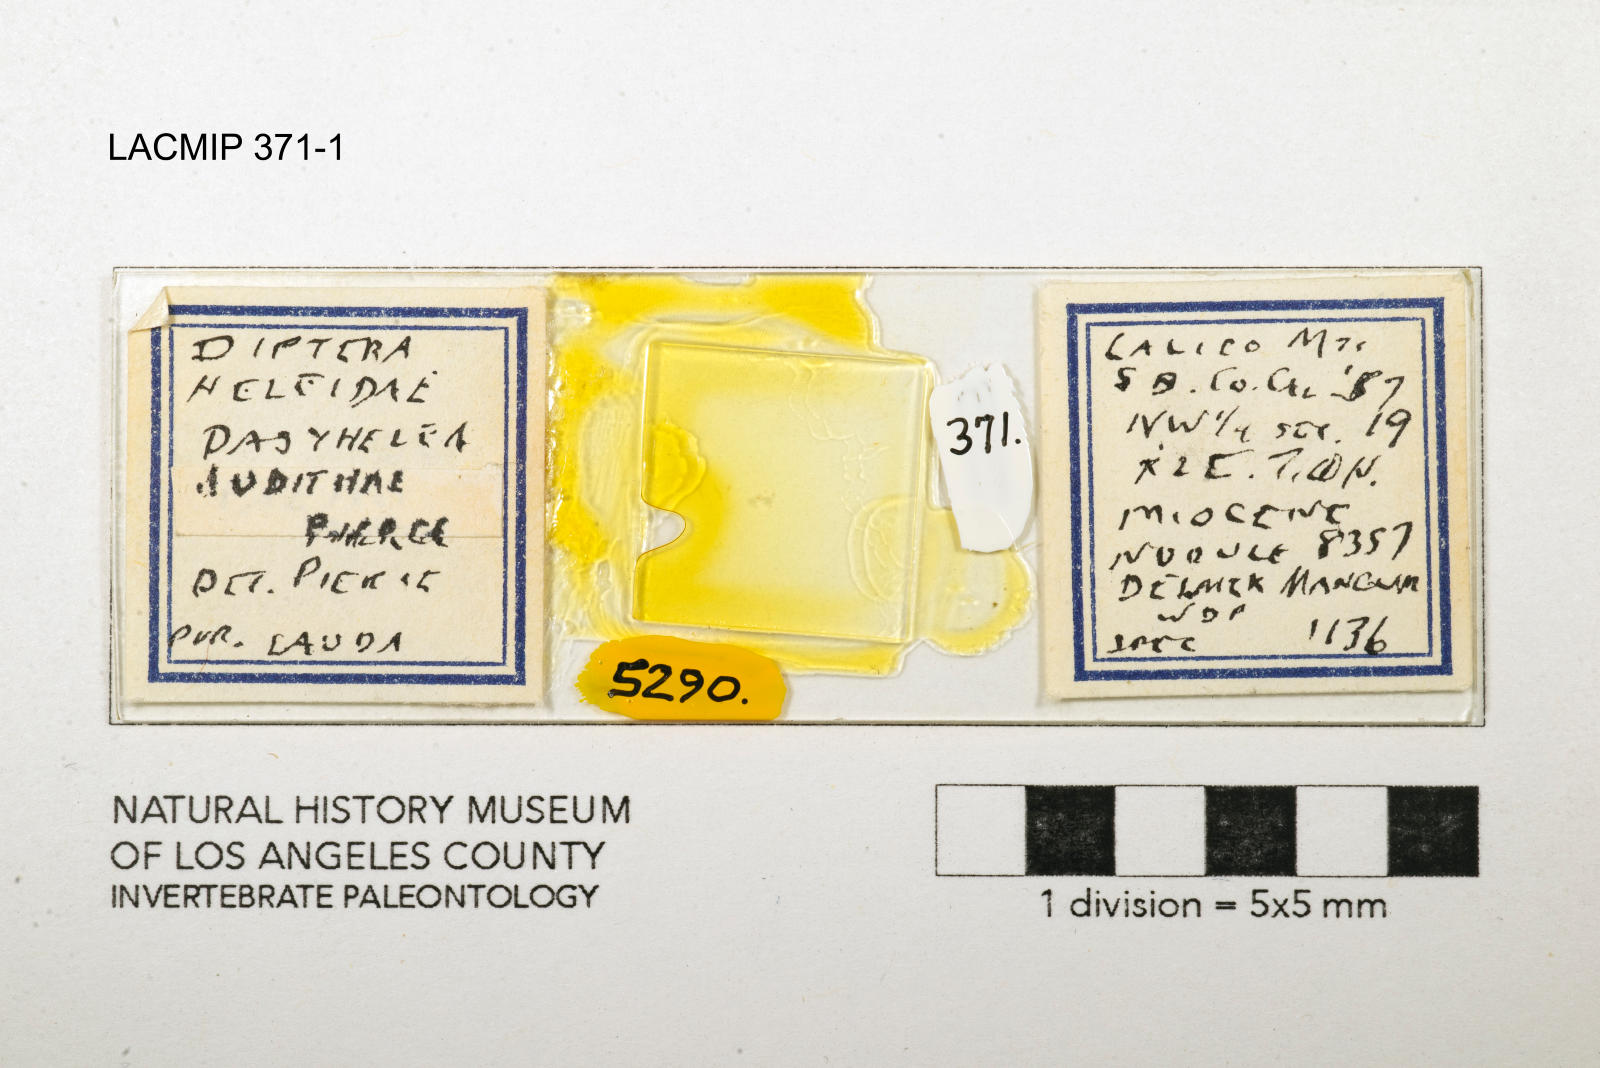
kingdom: Animalia
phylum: Arthropoda
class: Insecta
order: Diptera
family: Ceratopogonidae
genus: Dasyhelea
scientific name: Dasyhelea judithae
